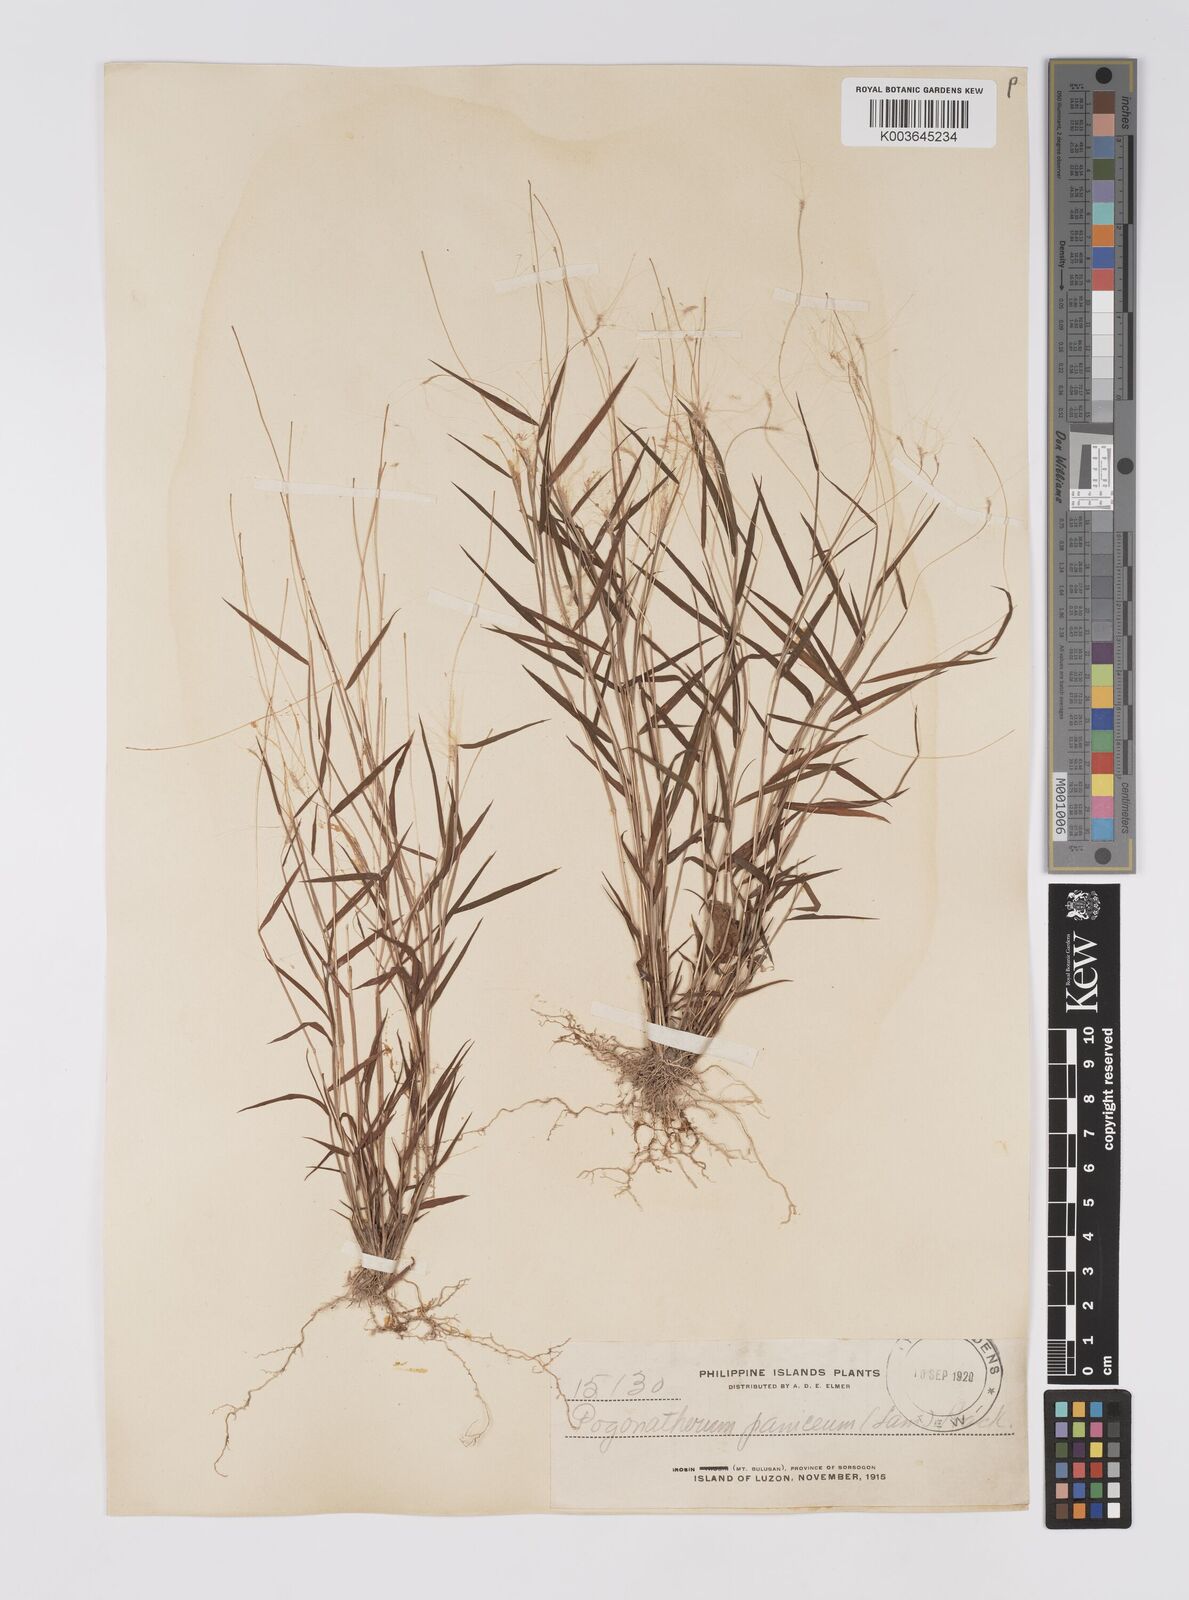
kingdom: Plantae
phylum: Tracheophyta
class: Liliopsida
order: Poales
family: Poaceae
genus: Pogonatherum
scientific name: Pogonatherum crinitum
